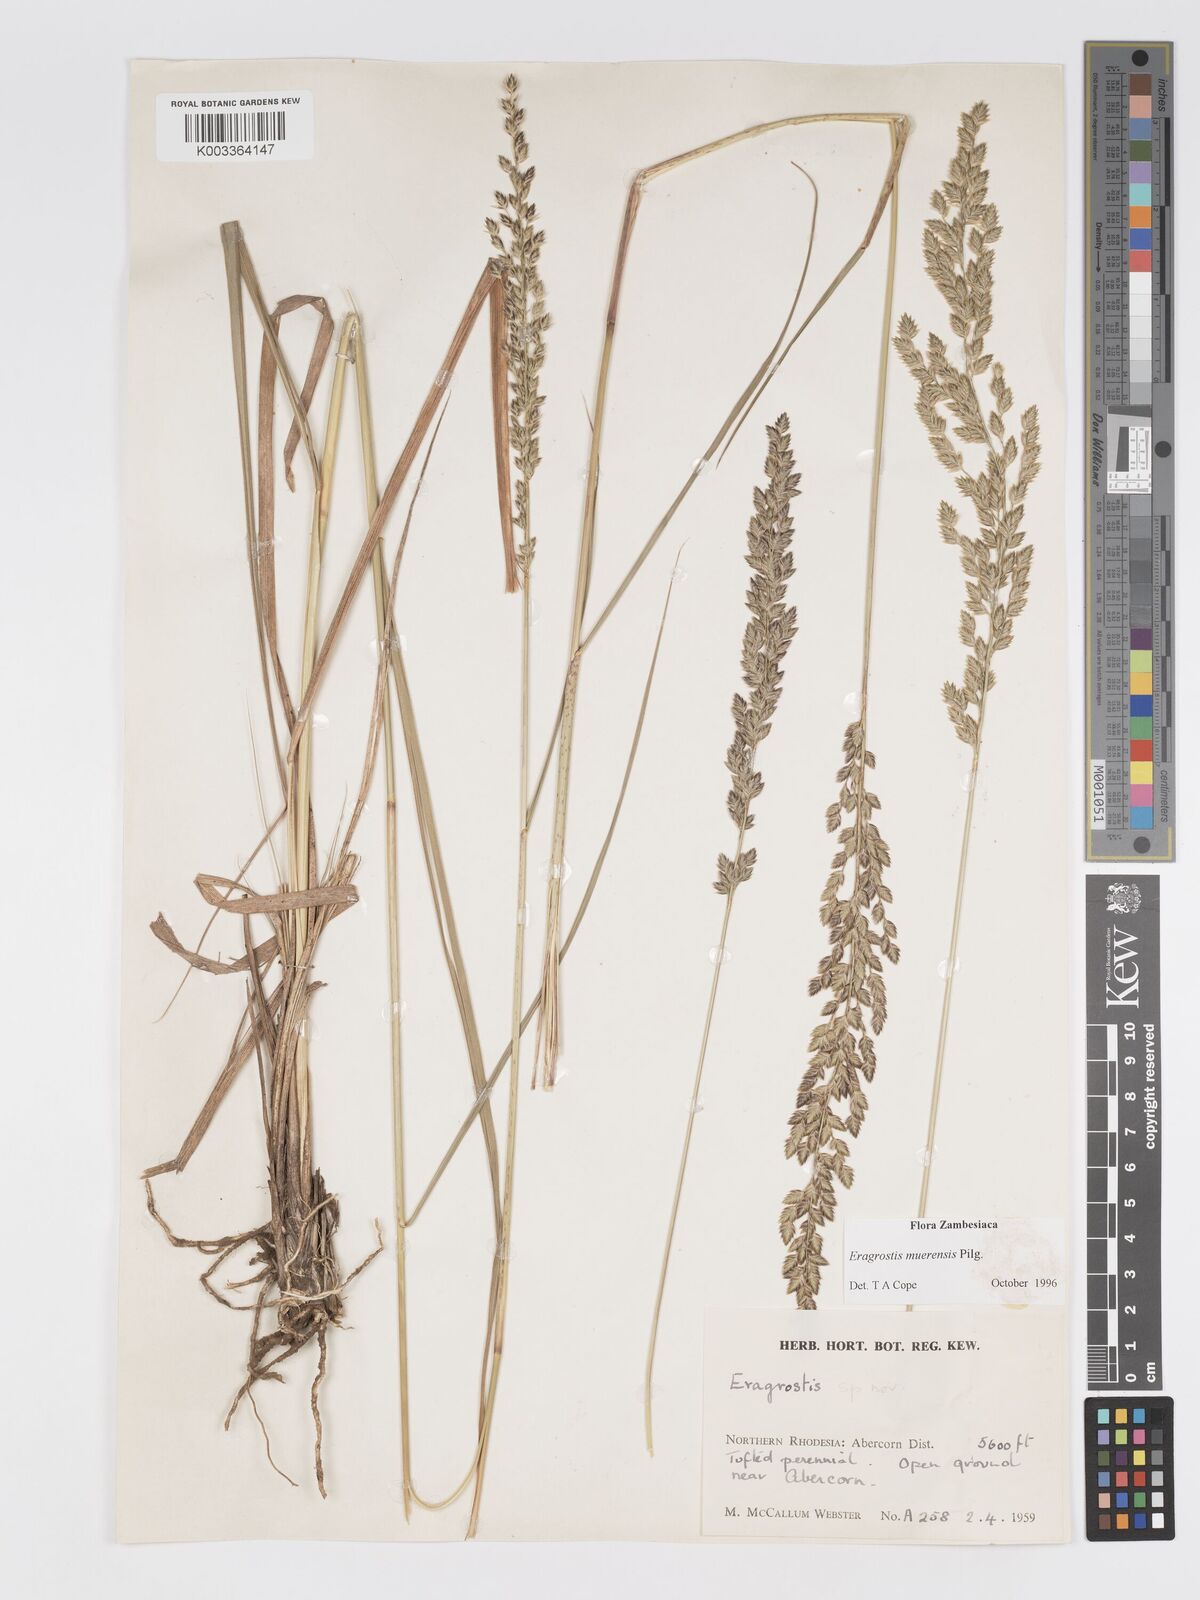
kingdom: Plantae
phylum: Tracheophyta
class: Liliopsida
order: Poales
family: Poaceae
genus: Eragrostis
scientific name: Eragrostis muerensis
